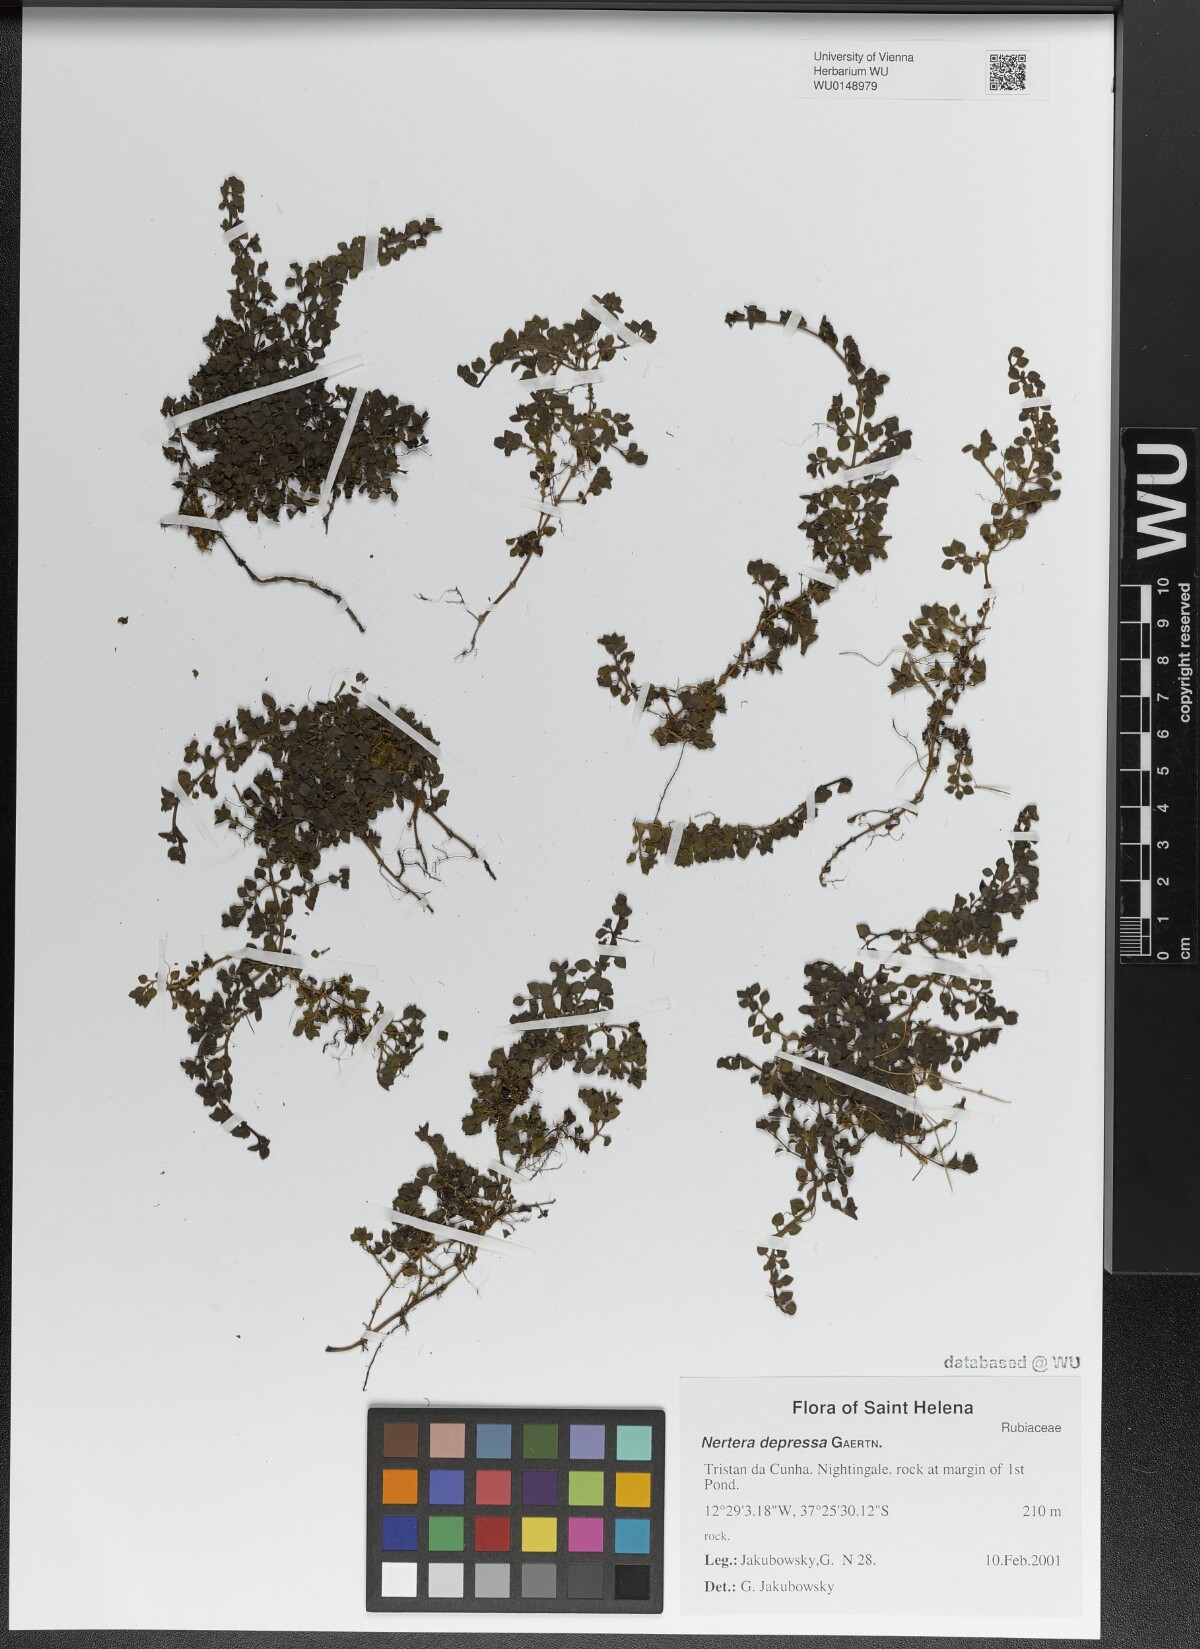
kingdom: Plantae
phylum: Tracheophyta
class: Magnoliopsida
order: Gentianales
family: Rubiaceae
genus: Nertera
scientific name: Nertera granadensis
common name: Beadplant
